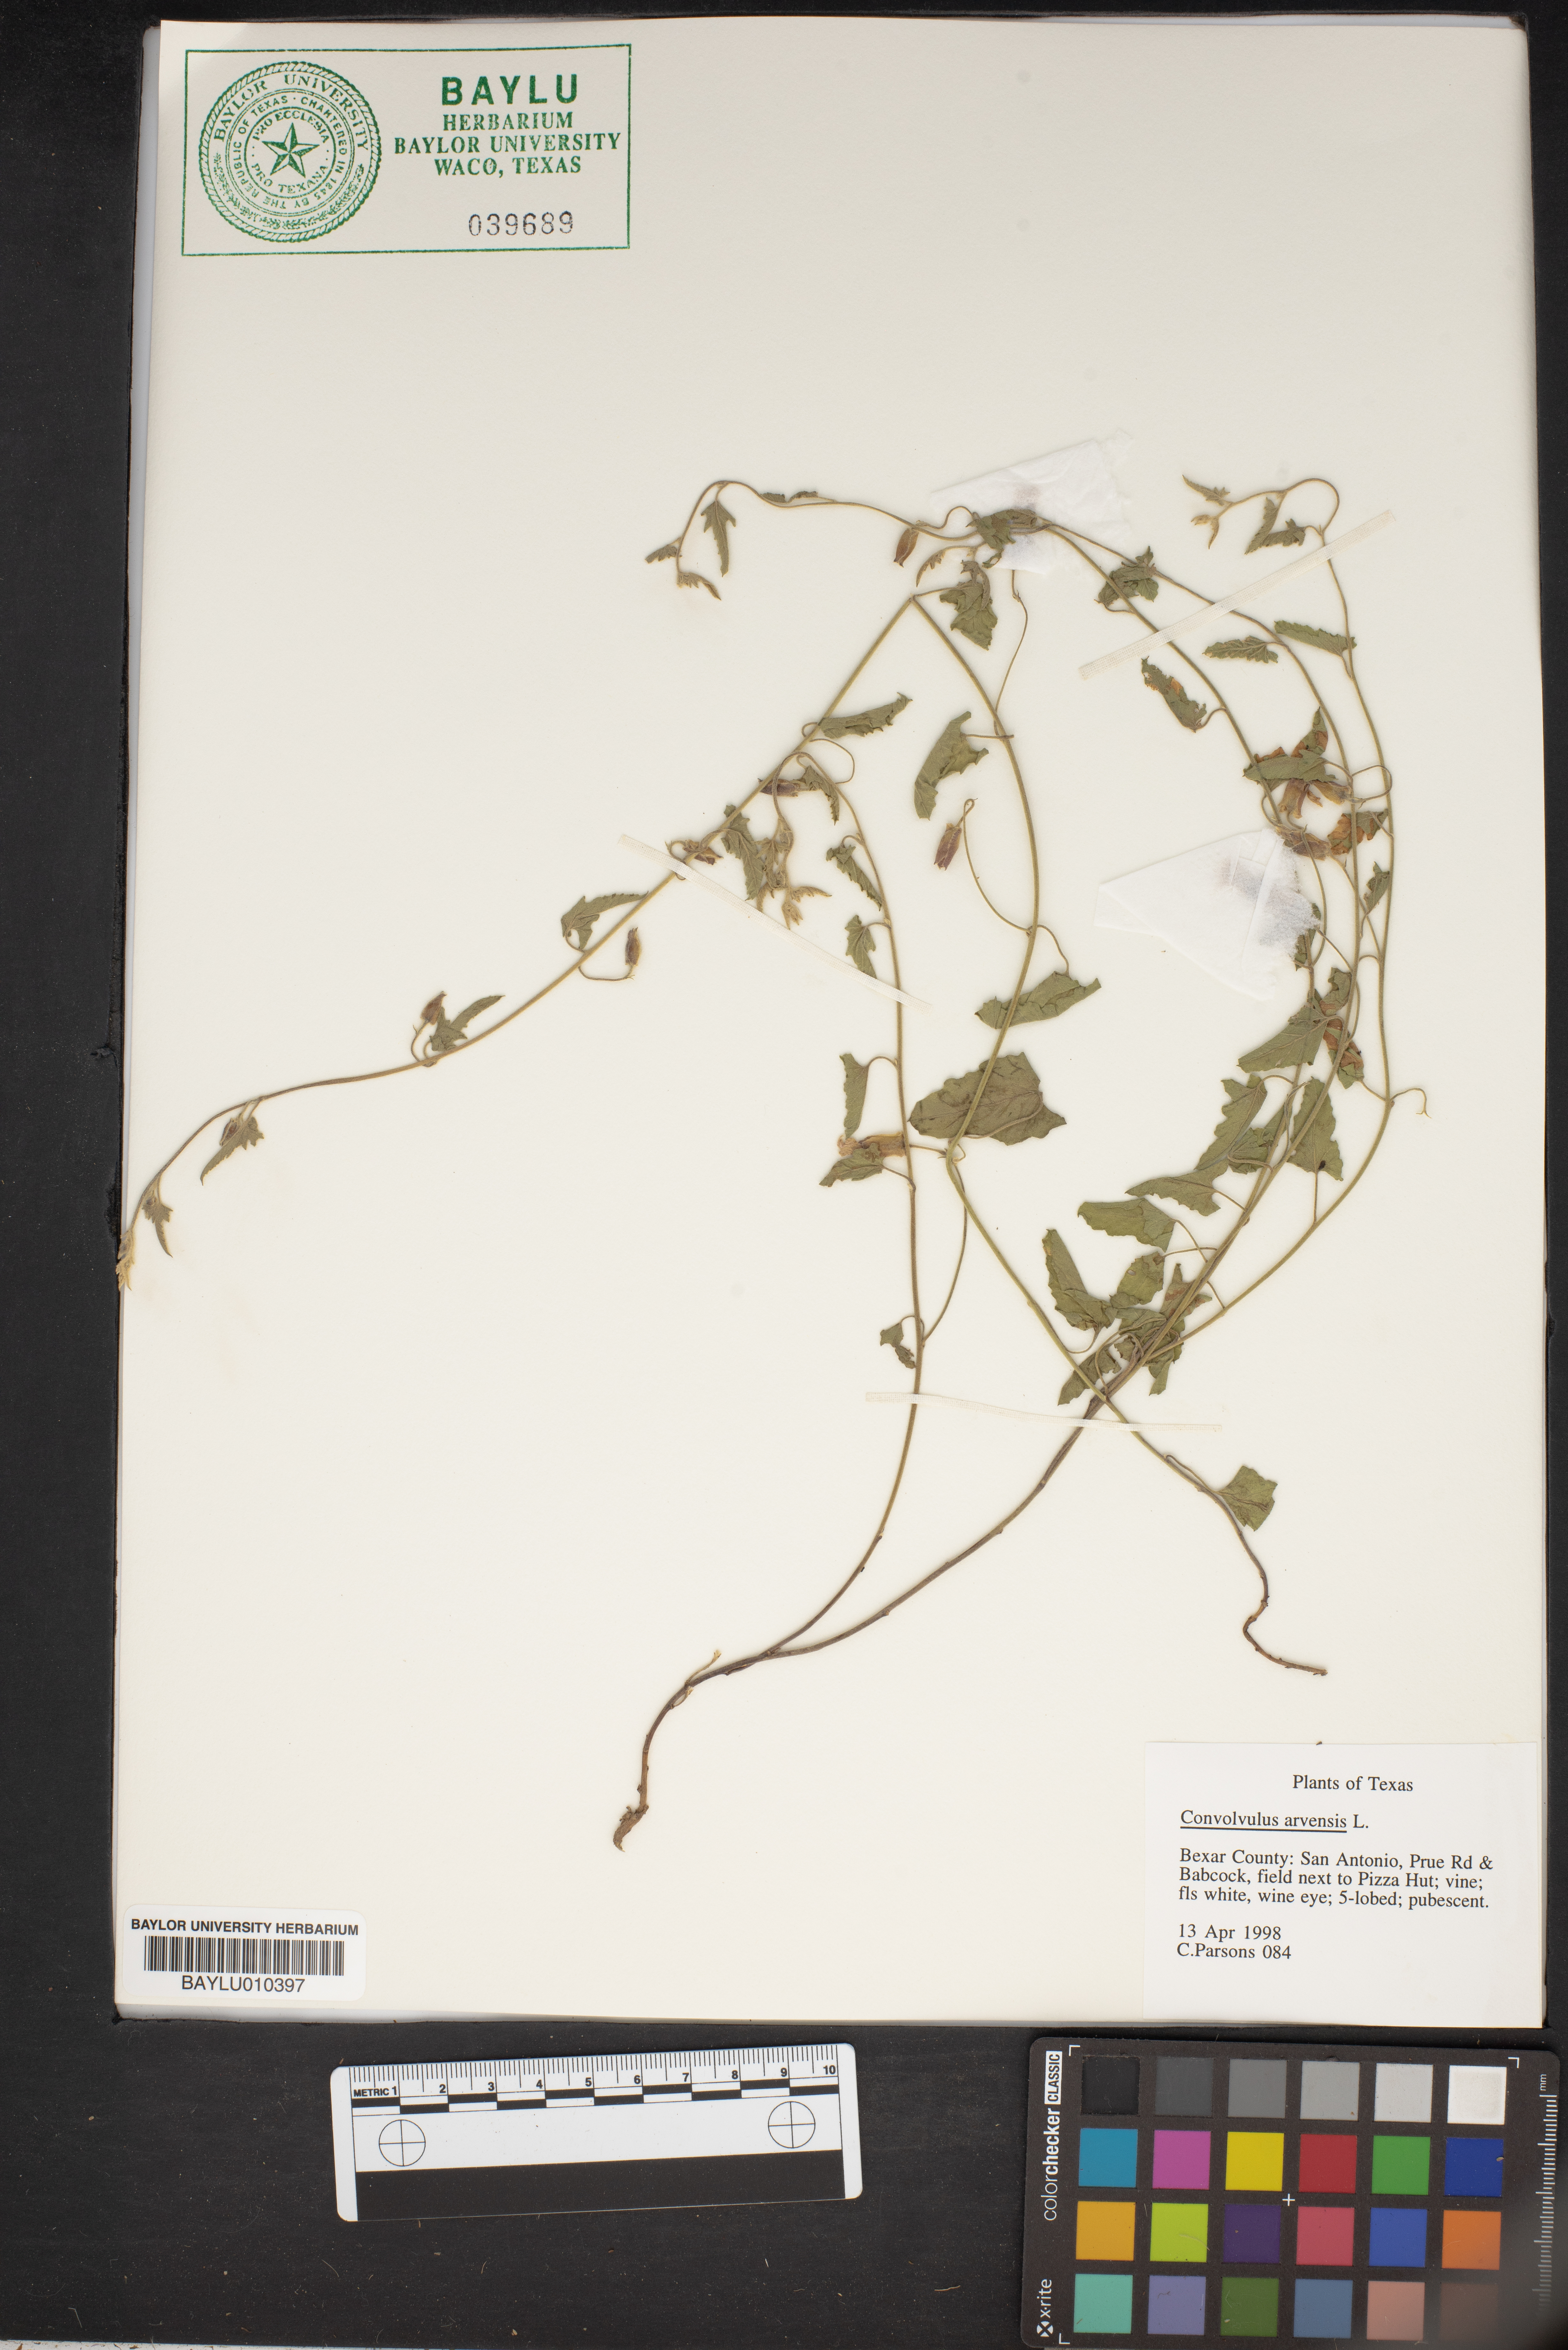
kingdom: Plantae
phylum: Tracheophyta
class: Magnoliopsida
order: Solanales
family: Convolvulaceae
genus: Convolvulus
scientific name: Convolvulus arvensis
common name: Field bindweed
